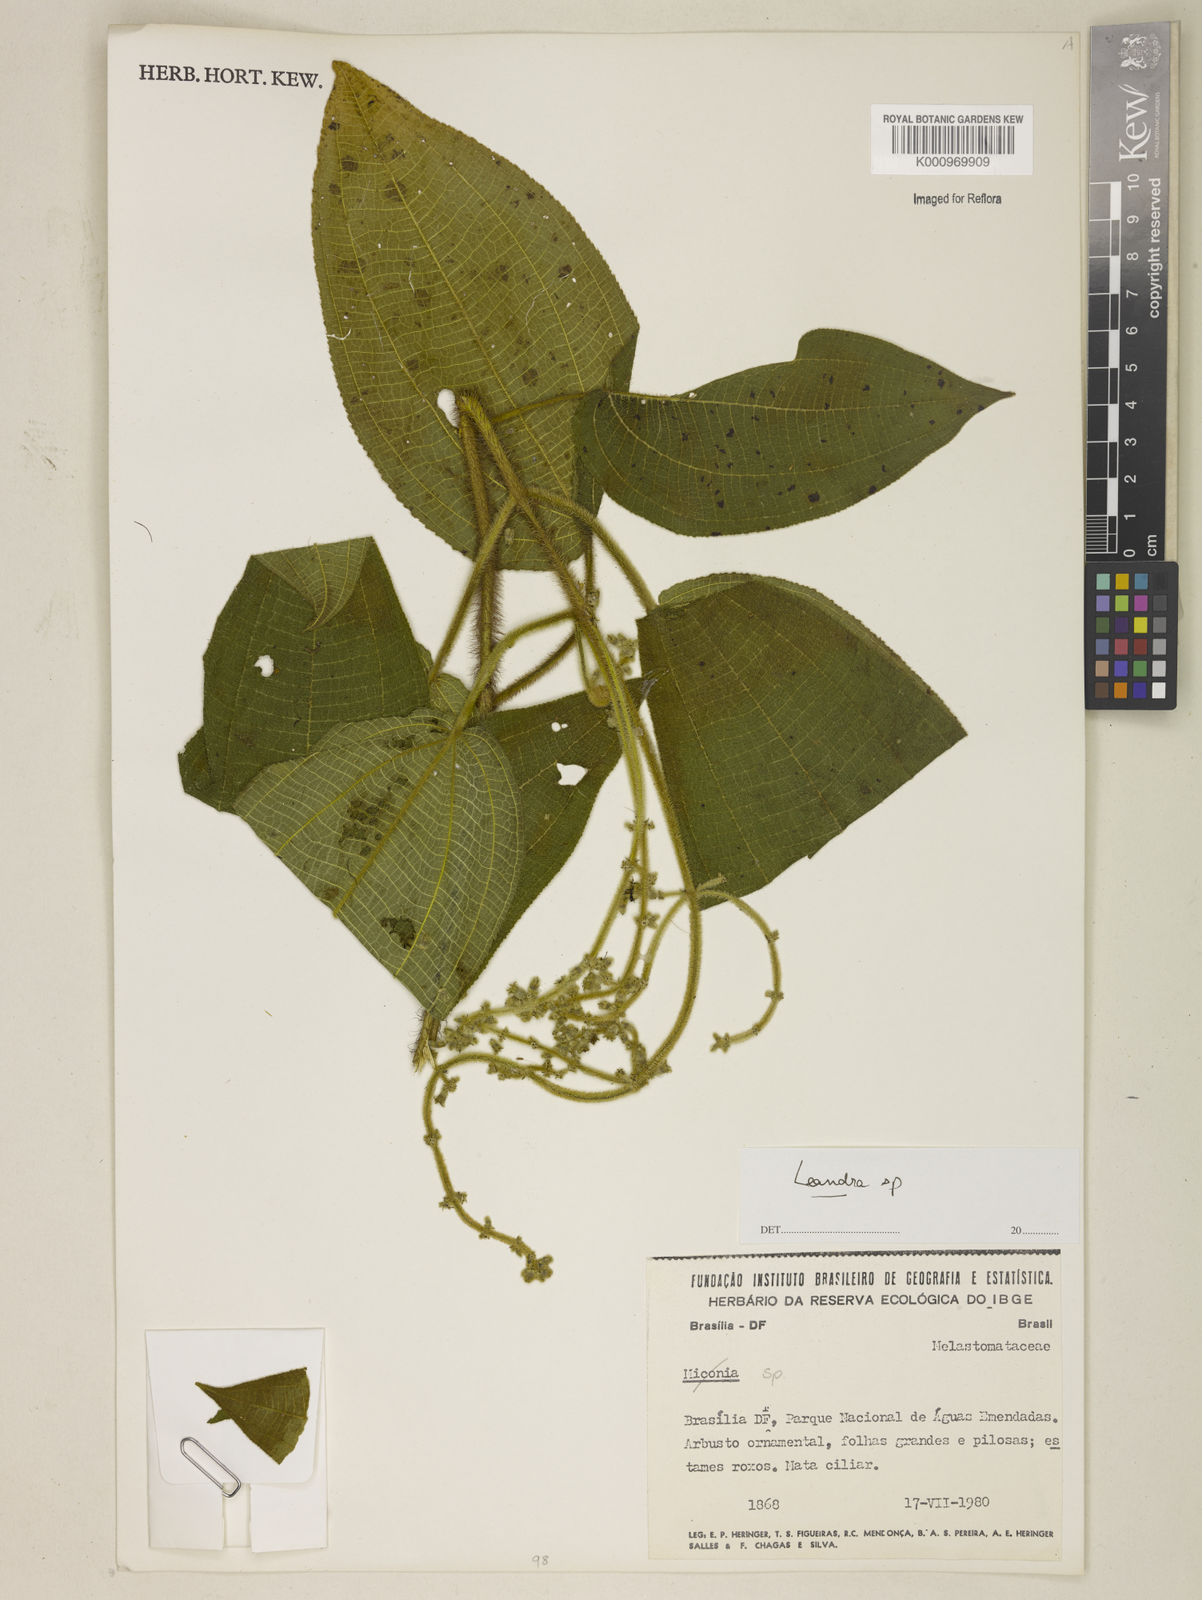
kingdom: Plantae
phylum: Tracheophyta
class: Magnoliopsida
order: Myrtales
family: Melastomataceae
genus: Miconia
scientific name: Miconia
